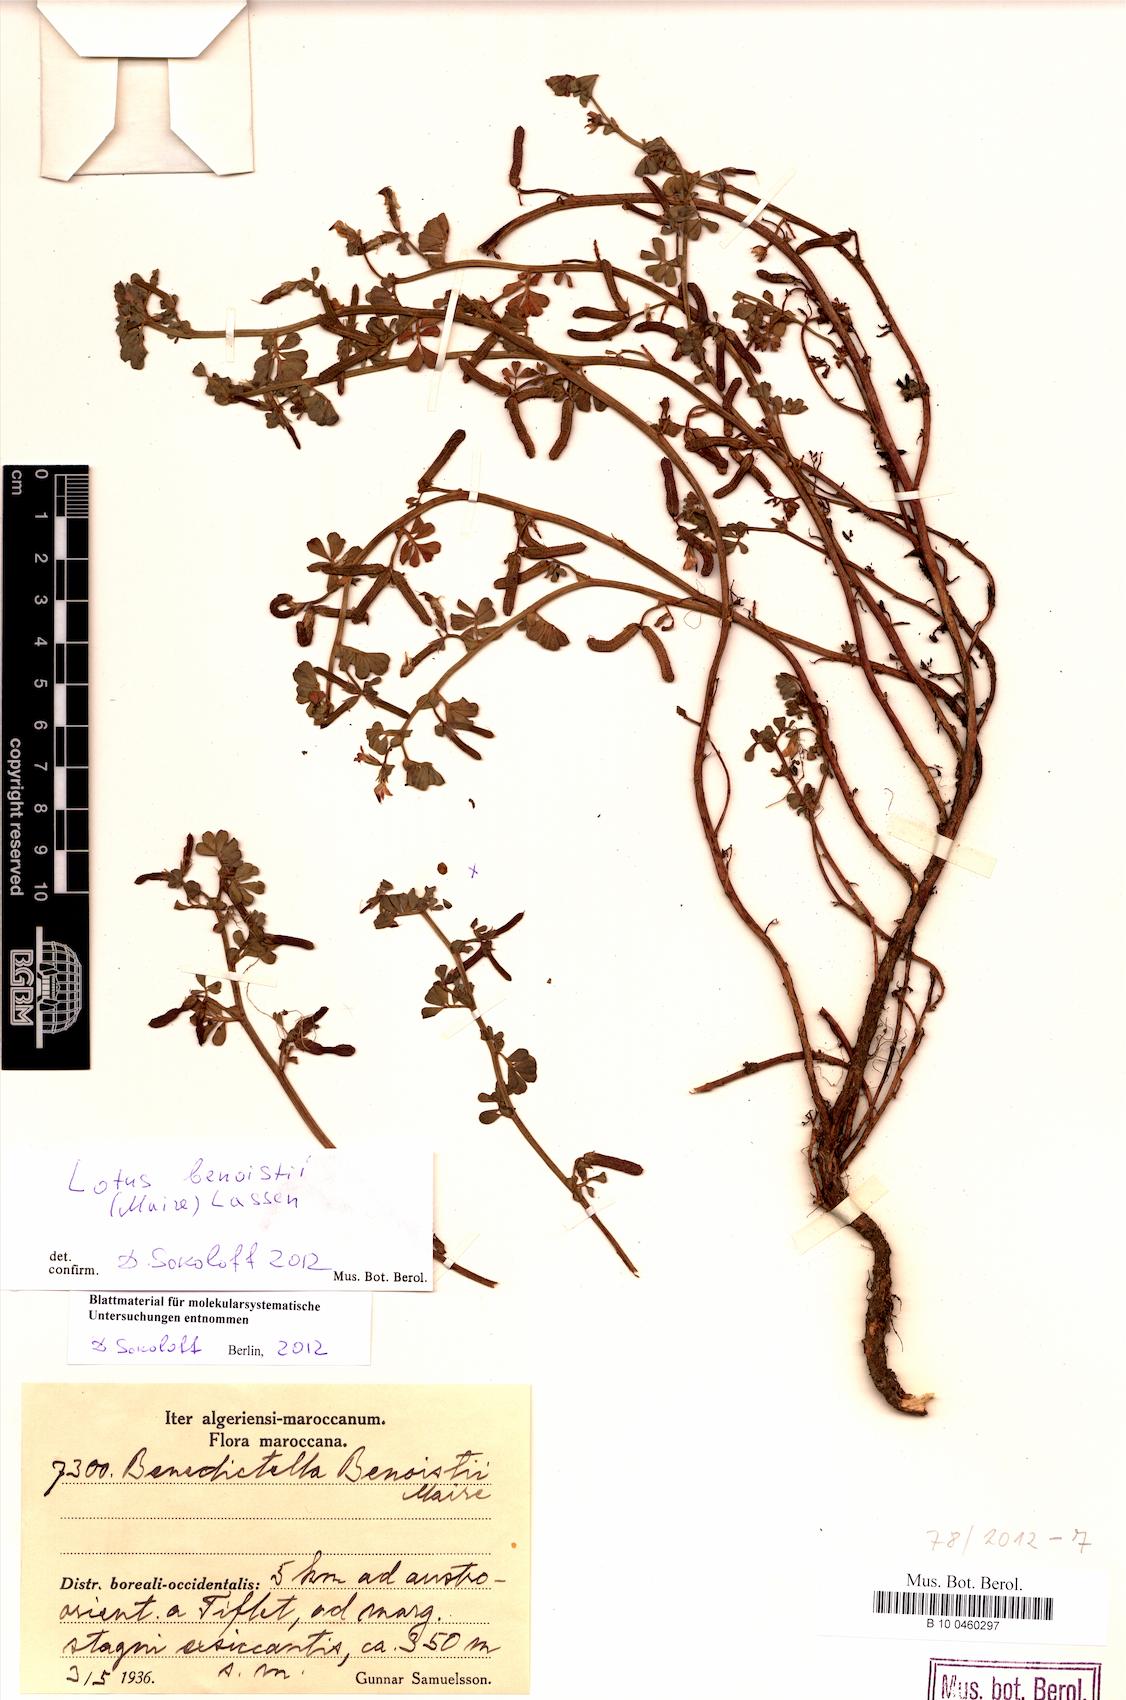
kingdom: Plantae
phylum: Tracheophyta
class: Magnoliopsida
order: Fabales
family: Fabaceae
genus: Lotus
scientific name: Lotus benoistii
